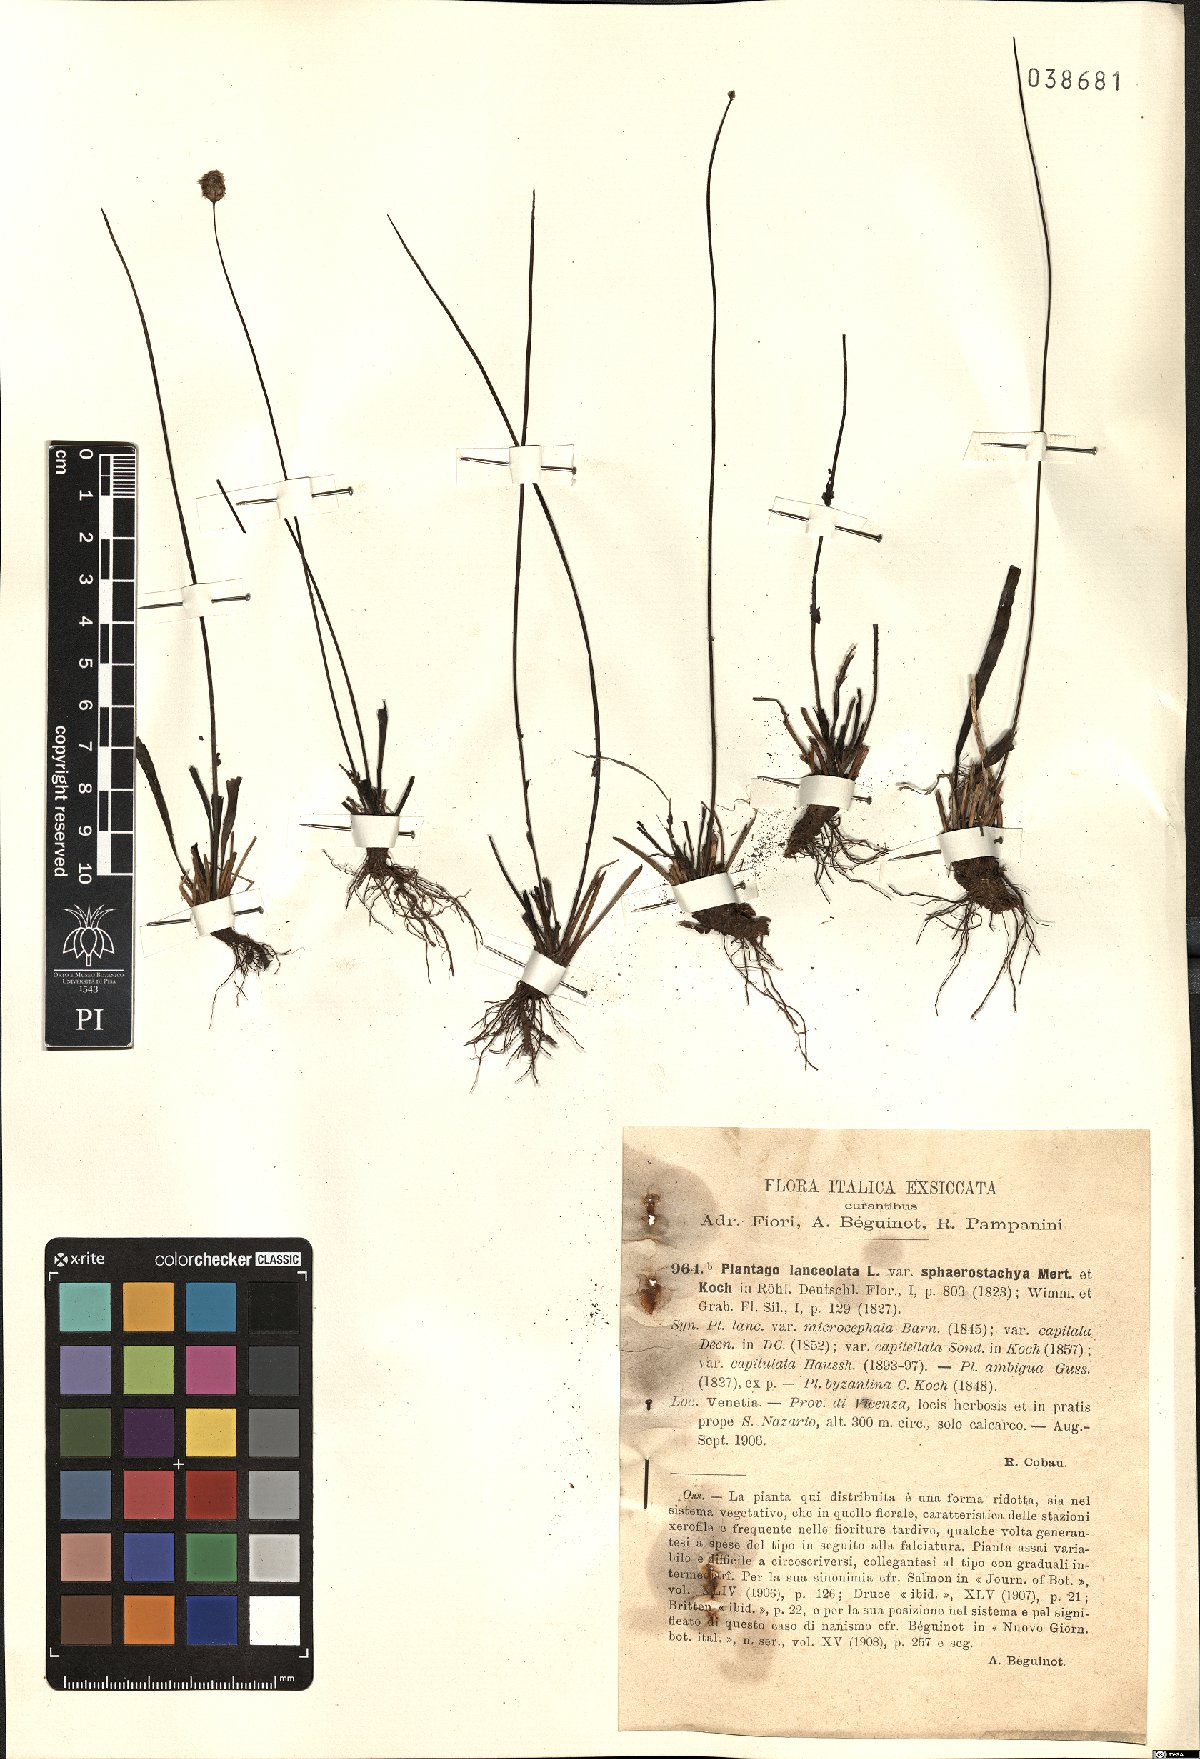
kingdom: Plantae
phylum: Tracheophyta
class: Magnoliopsida
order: Lamiales
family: Plantaginaceae
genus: Plantago
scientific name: Plantago lanceolata
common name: Ribwort plantain
